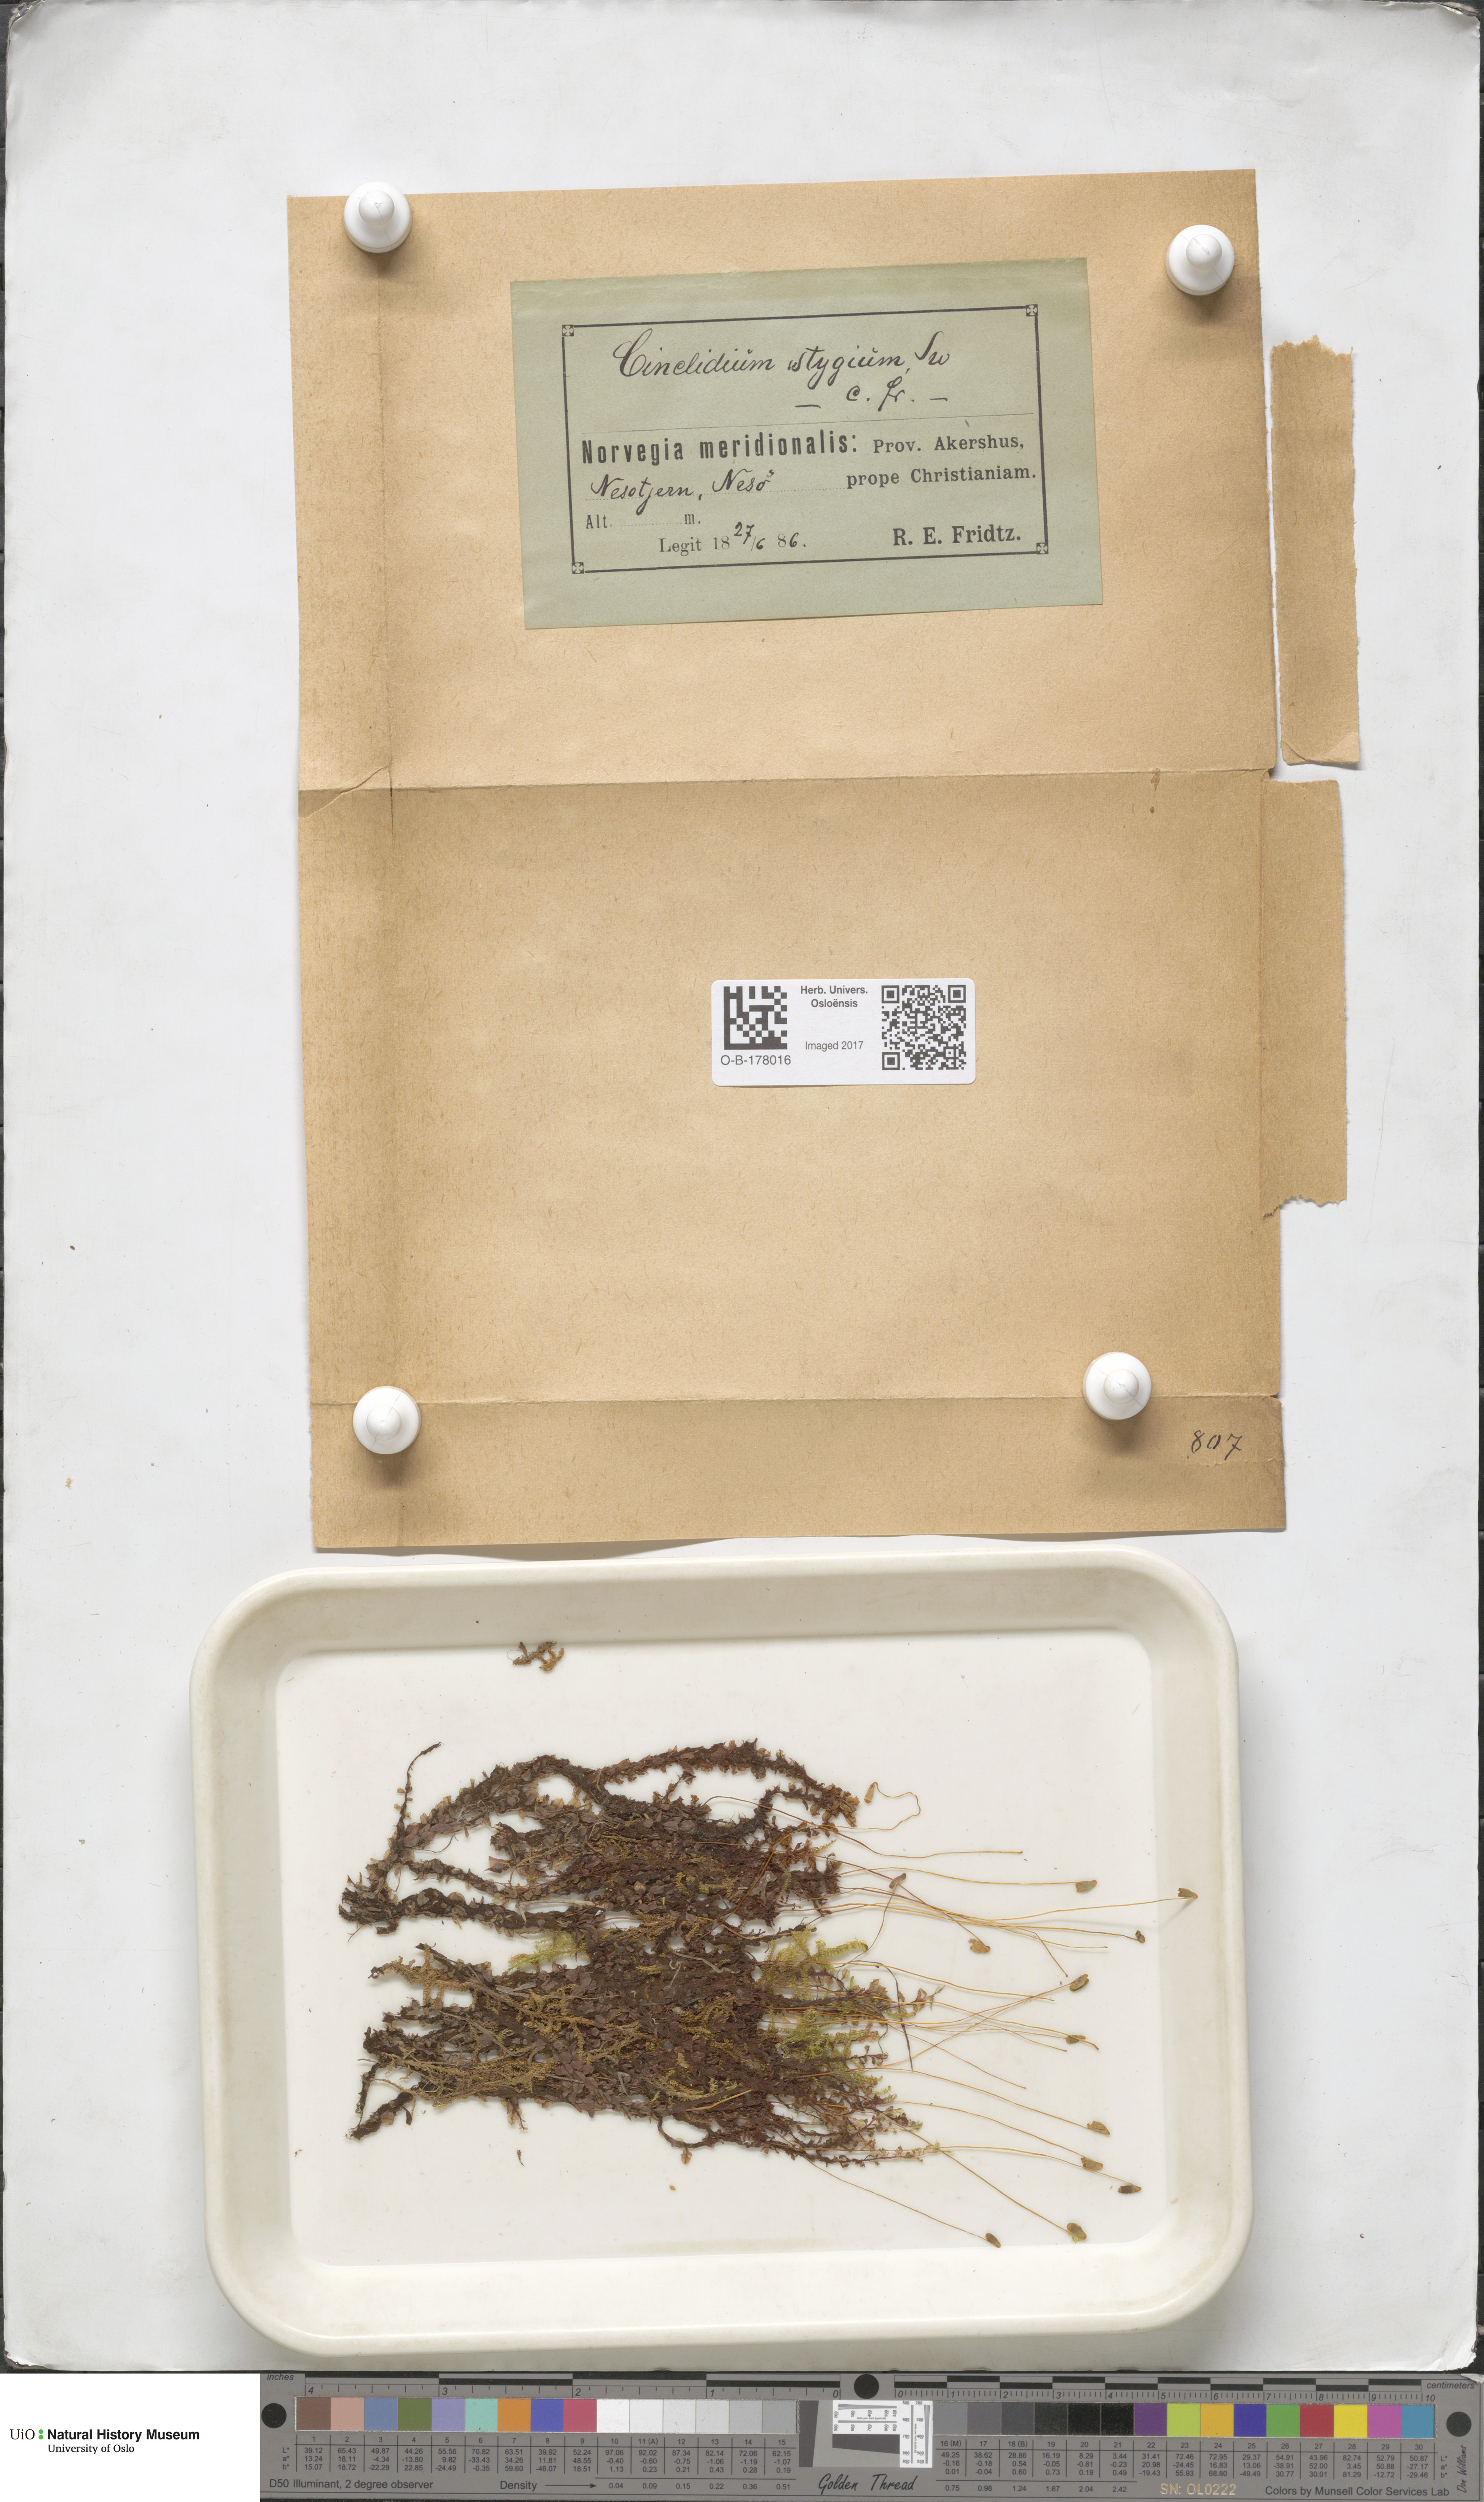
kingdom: Plantae
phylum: Bryophyta
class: Bryopsida
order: Bryales
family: Mniaceae
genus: Cinclidium
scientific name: Cinclidium stygium
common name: Sooty cupola moss
